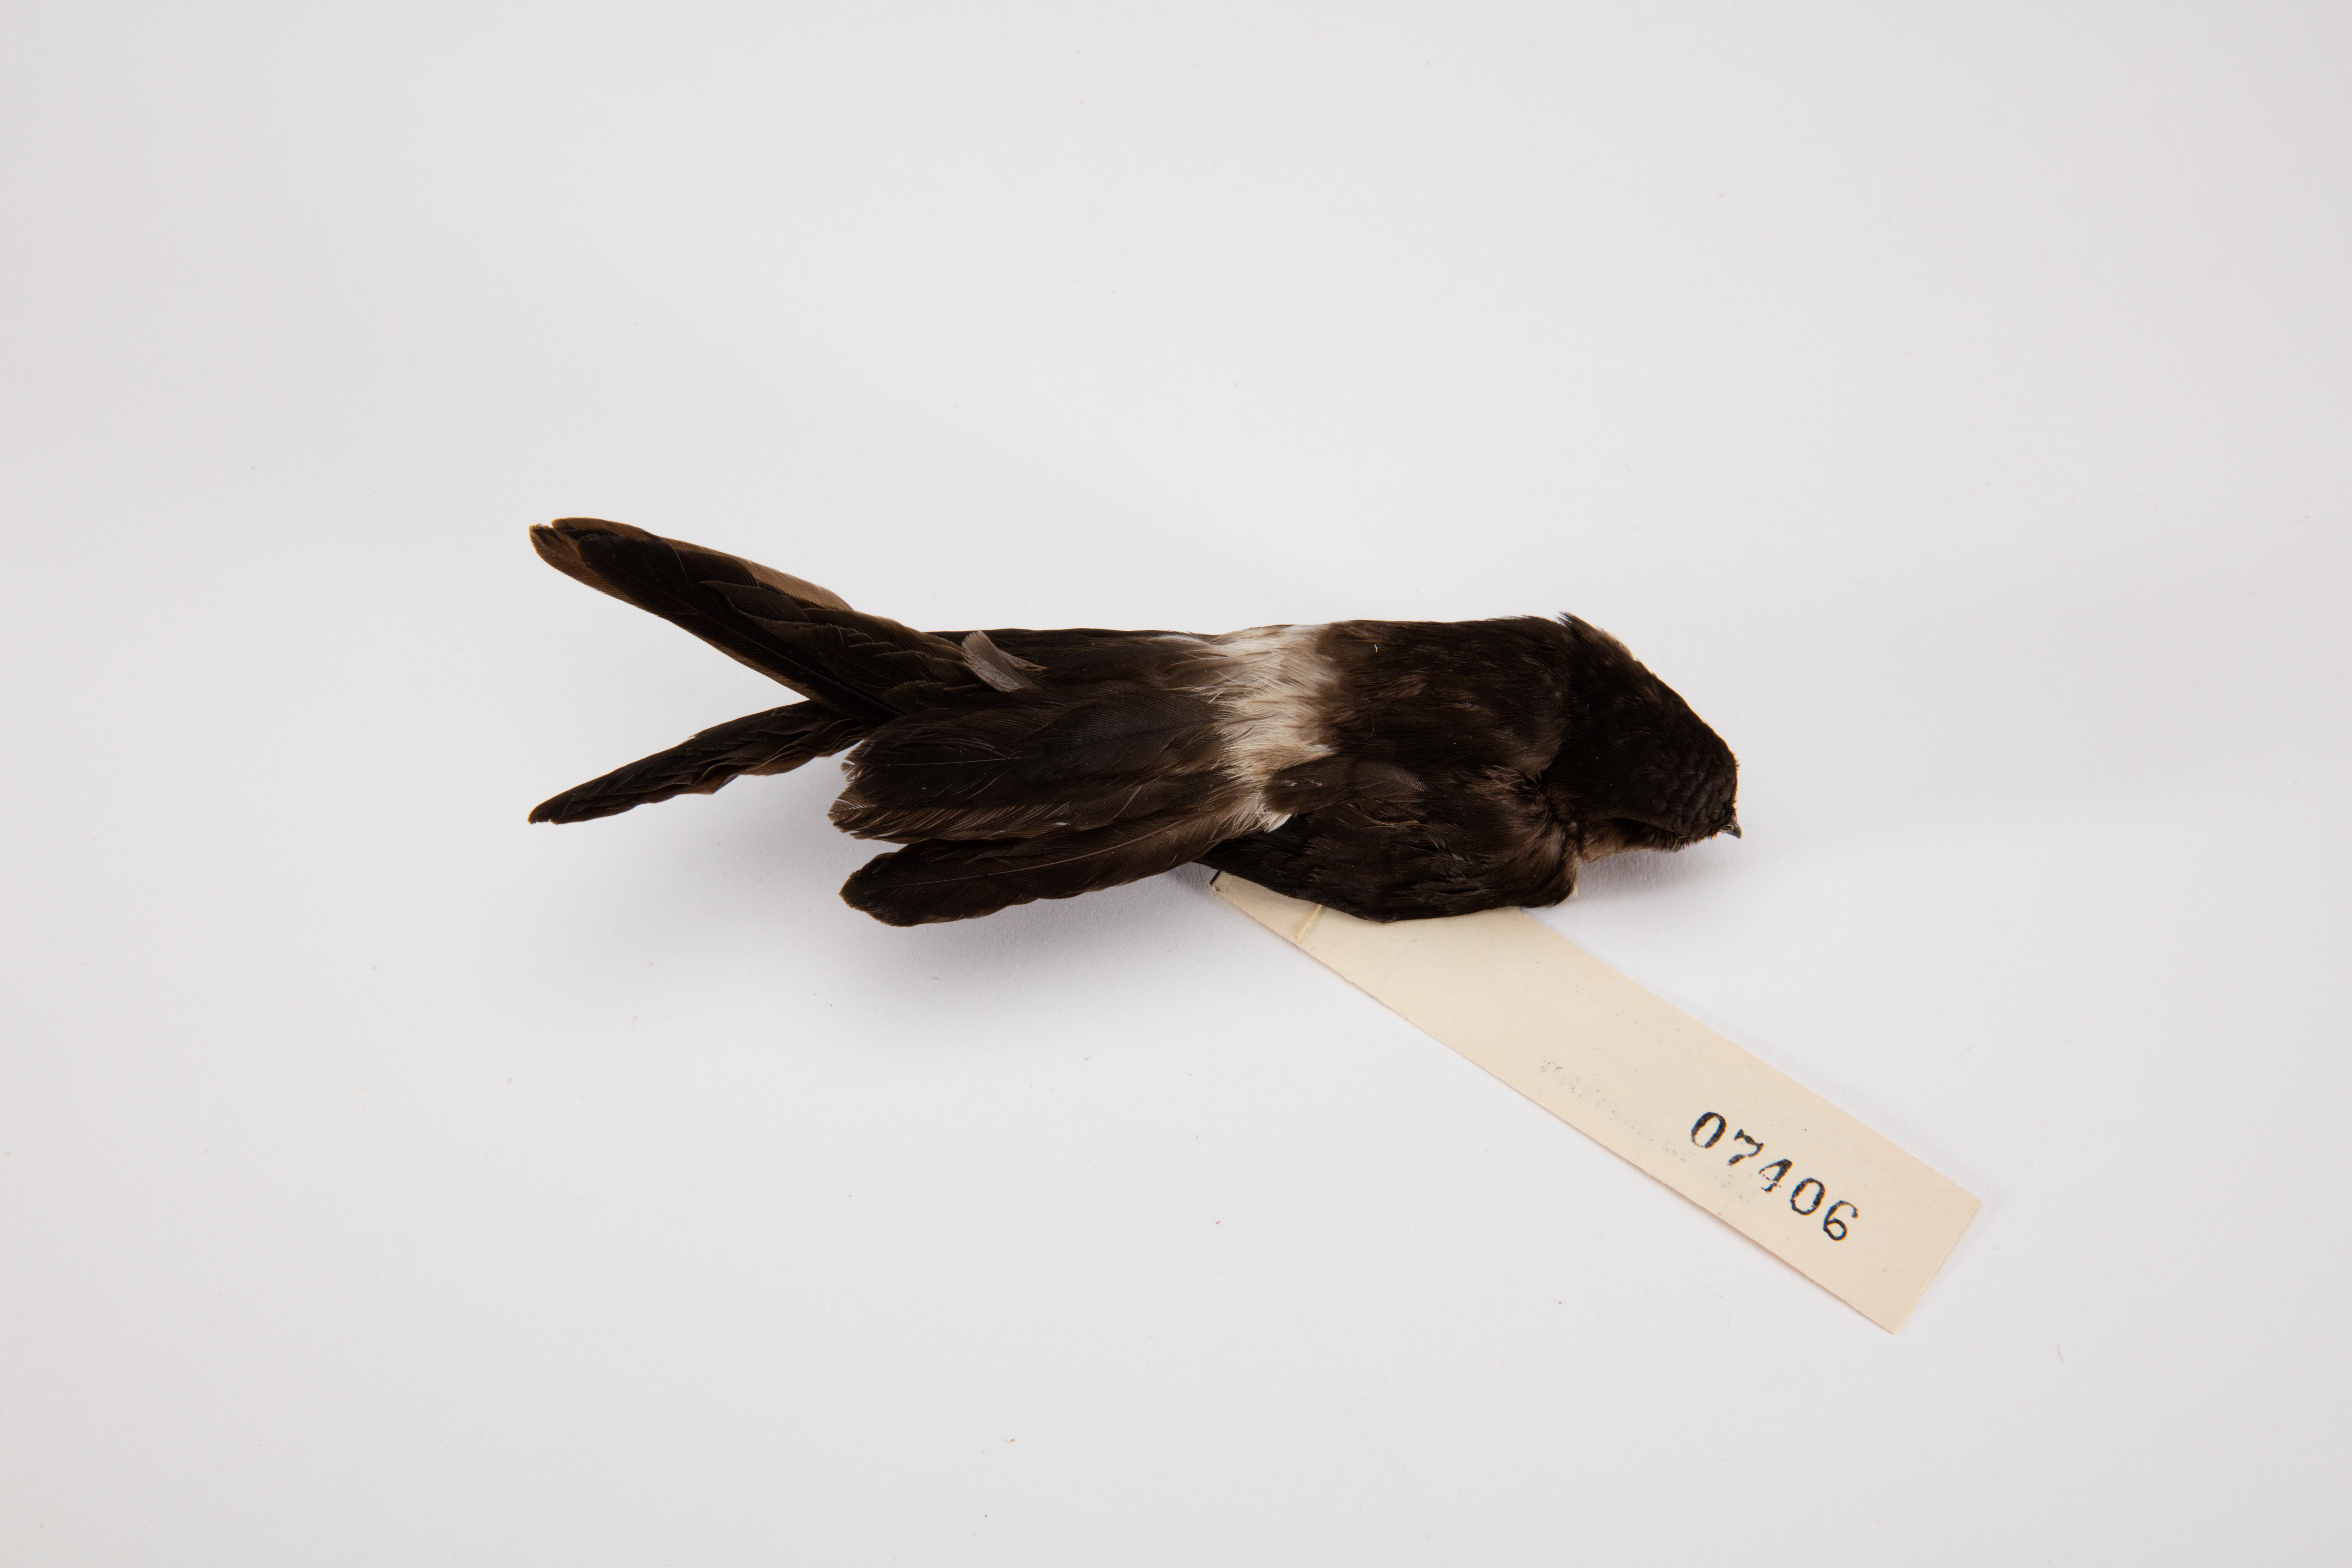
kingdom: Animalia
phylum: Chordata
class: Aves
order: Apodiformes
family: Apodidae
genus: Aerodramus
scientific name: Aerodramus spodiopygius
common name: White-rumped swiftlet
